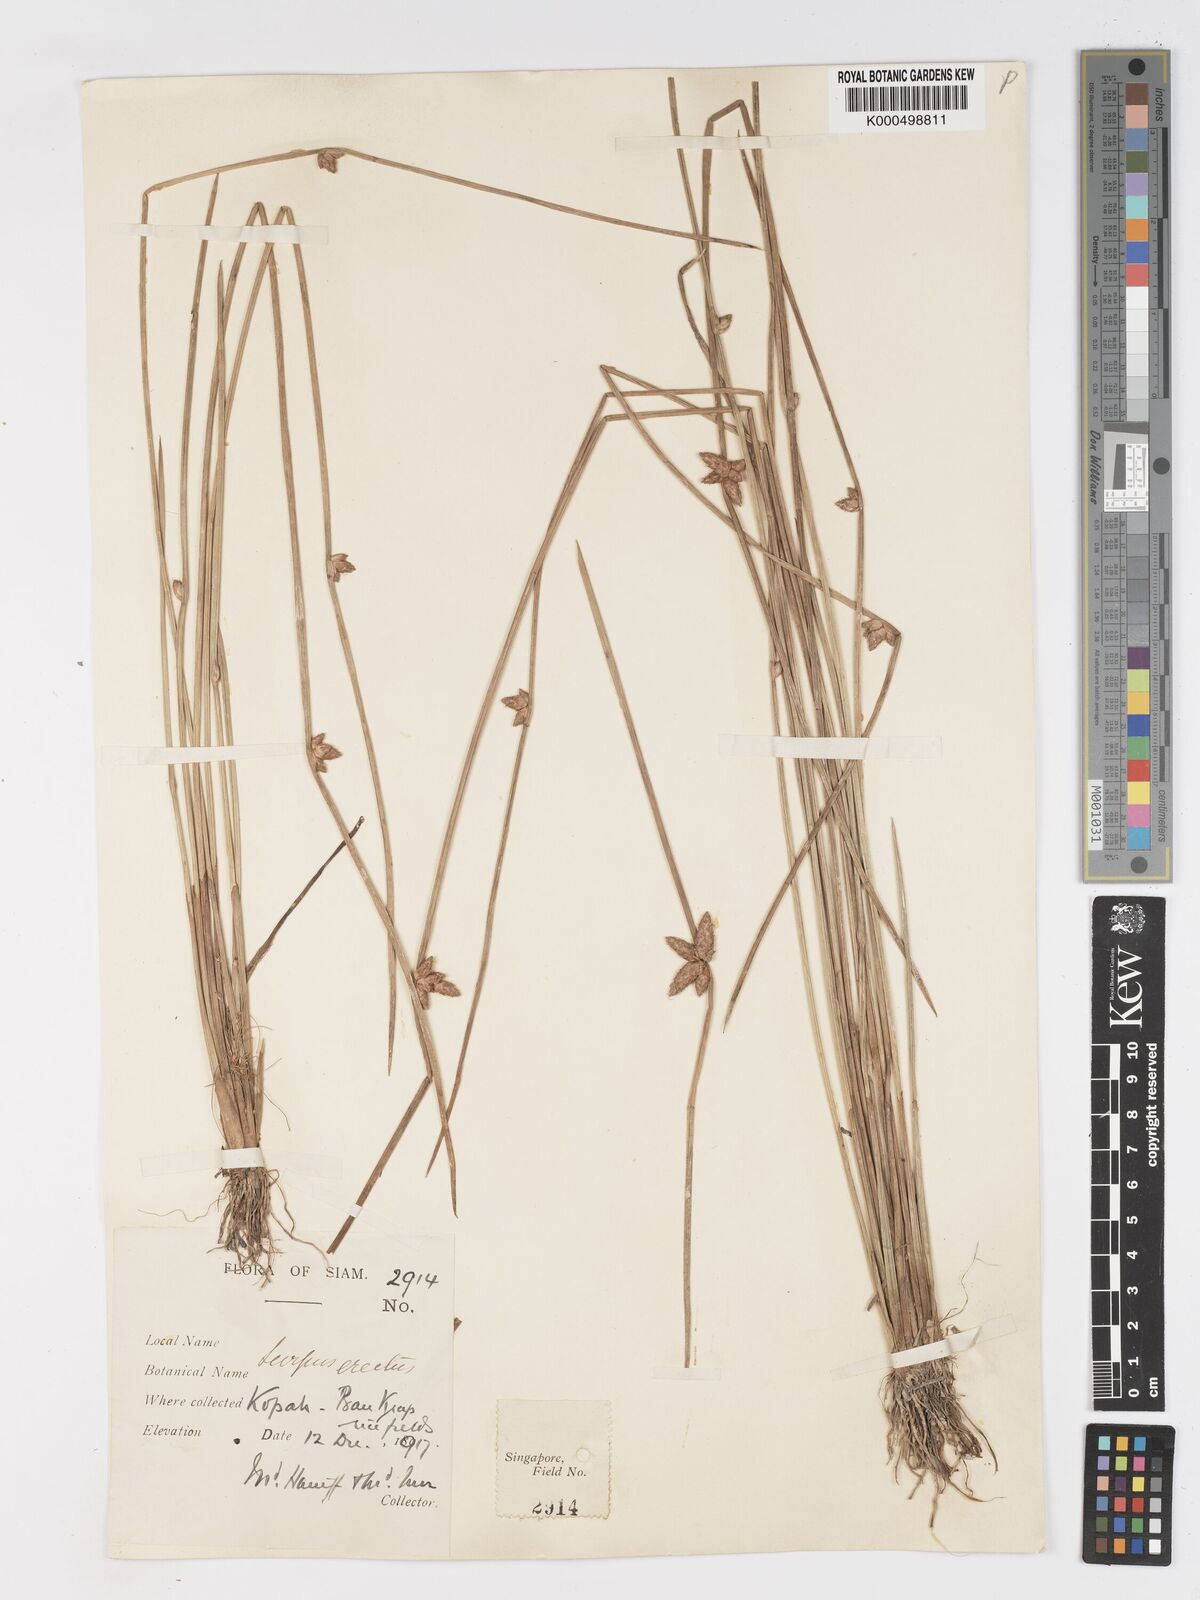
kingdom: Plantae
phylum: Tracheophyta
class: Liliopsida
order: Poales
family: Cyperaceae
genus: Schoenoplectiella
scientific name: Schoenoplectiella juncoides
